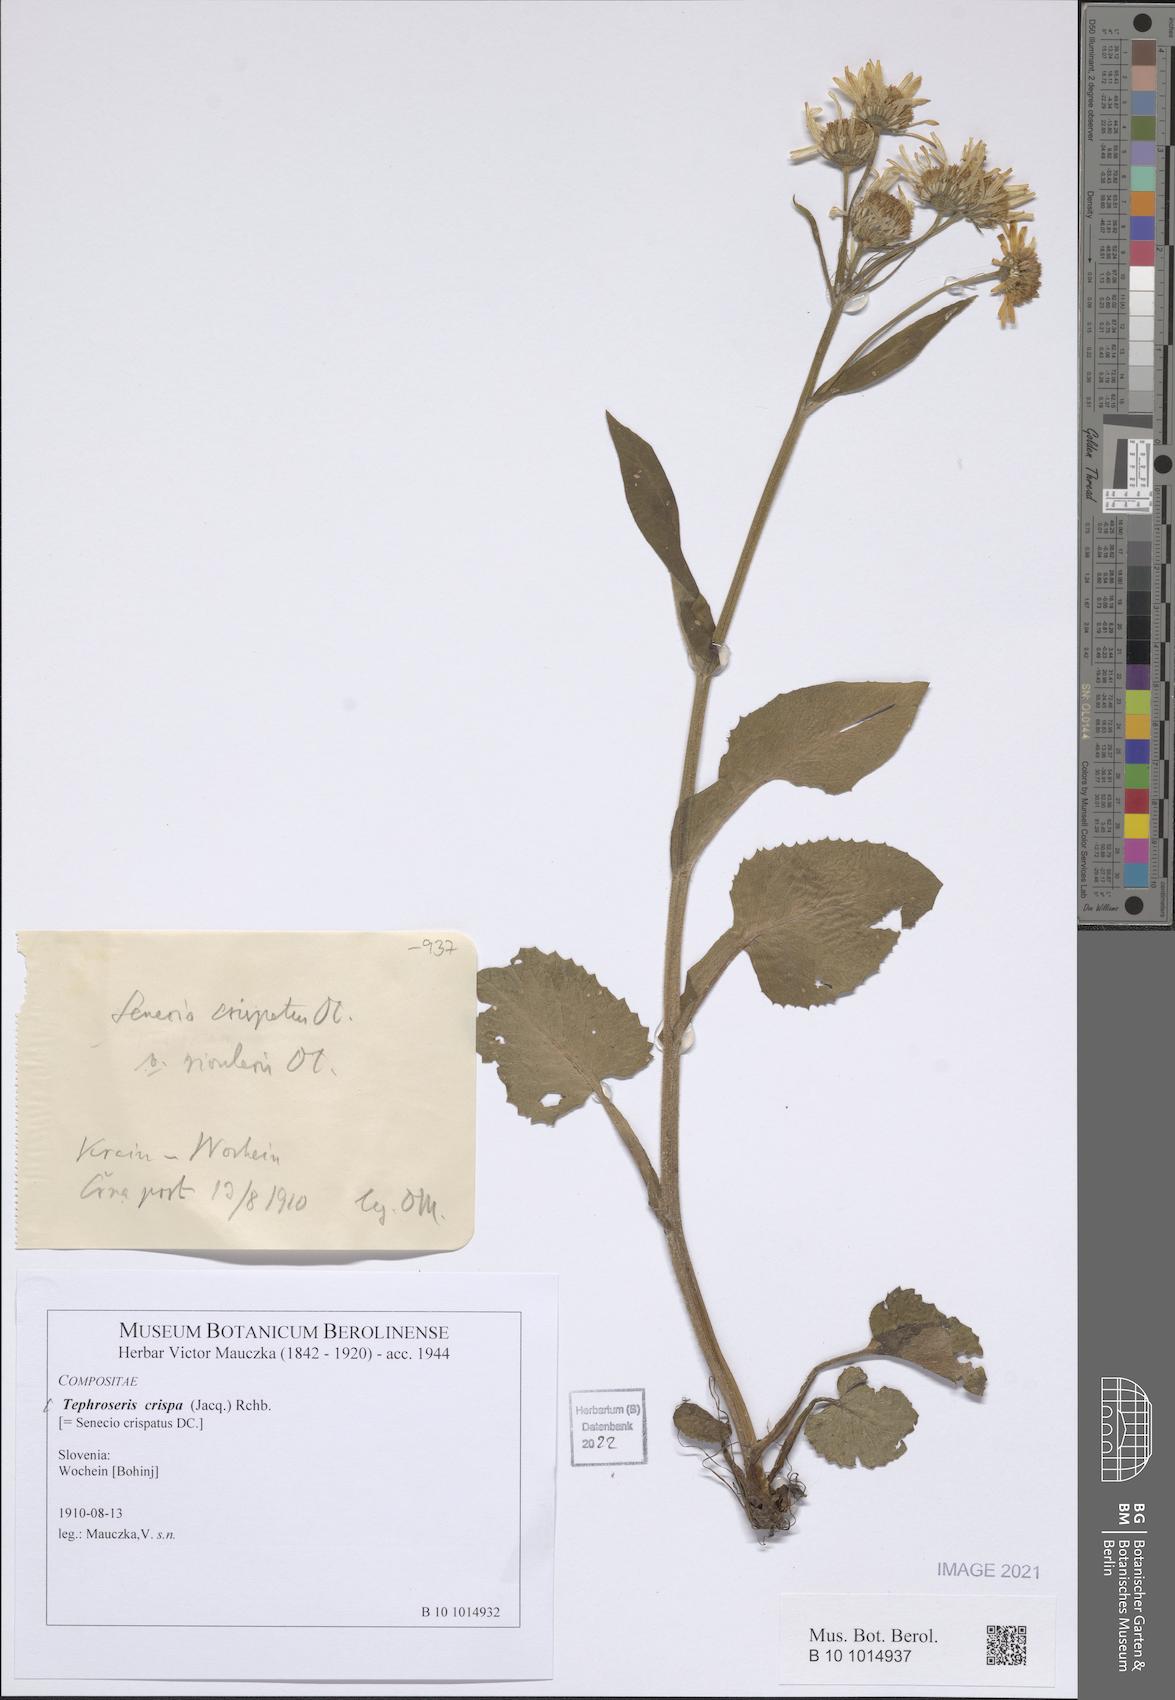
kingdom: Plantae
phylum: Tracheophyta
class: Magnoliopsida
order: Asterales
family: Asteraceae
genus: Tephroseris
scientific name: Tephroseris crispa
